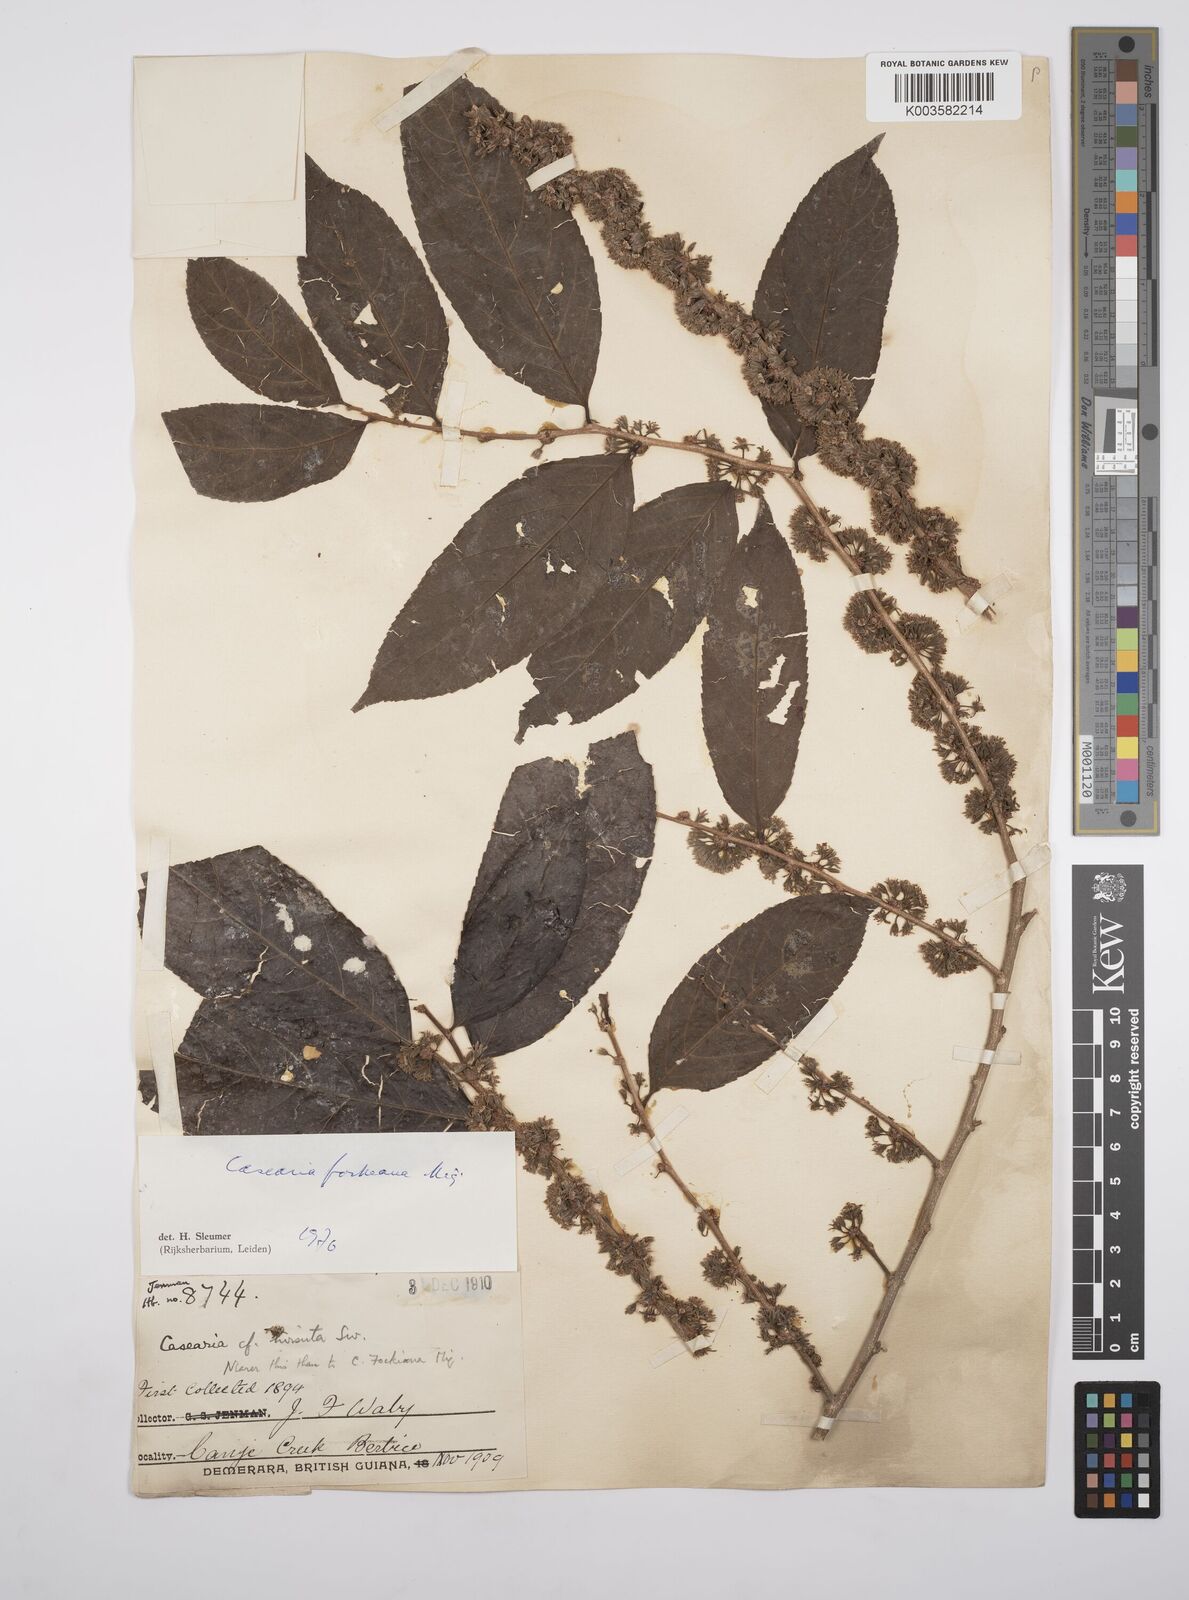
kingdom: Plantae
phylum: Tracheophyta
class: Magnoliopsida
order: Malpighiales
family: Salicaceae
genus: Casearia
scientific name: Casearia mariquitensis
